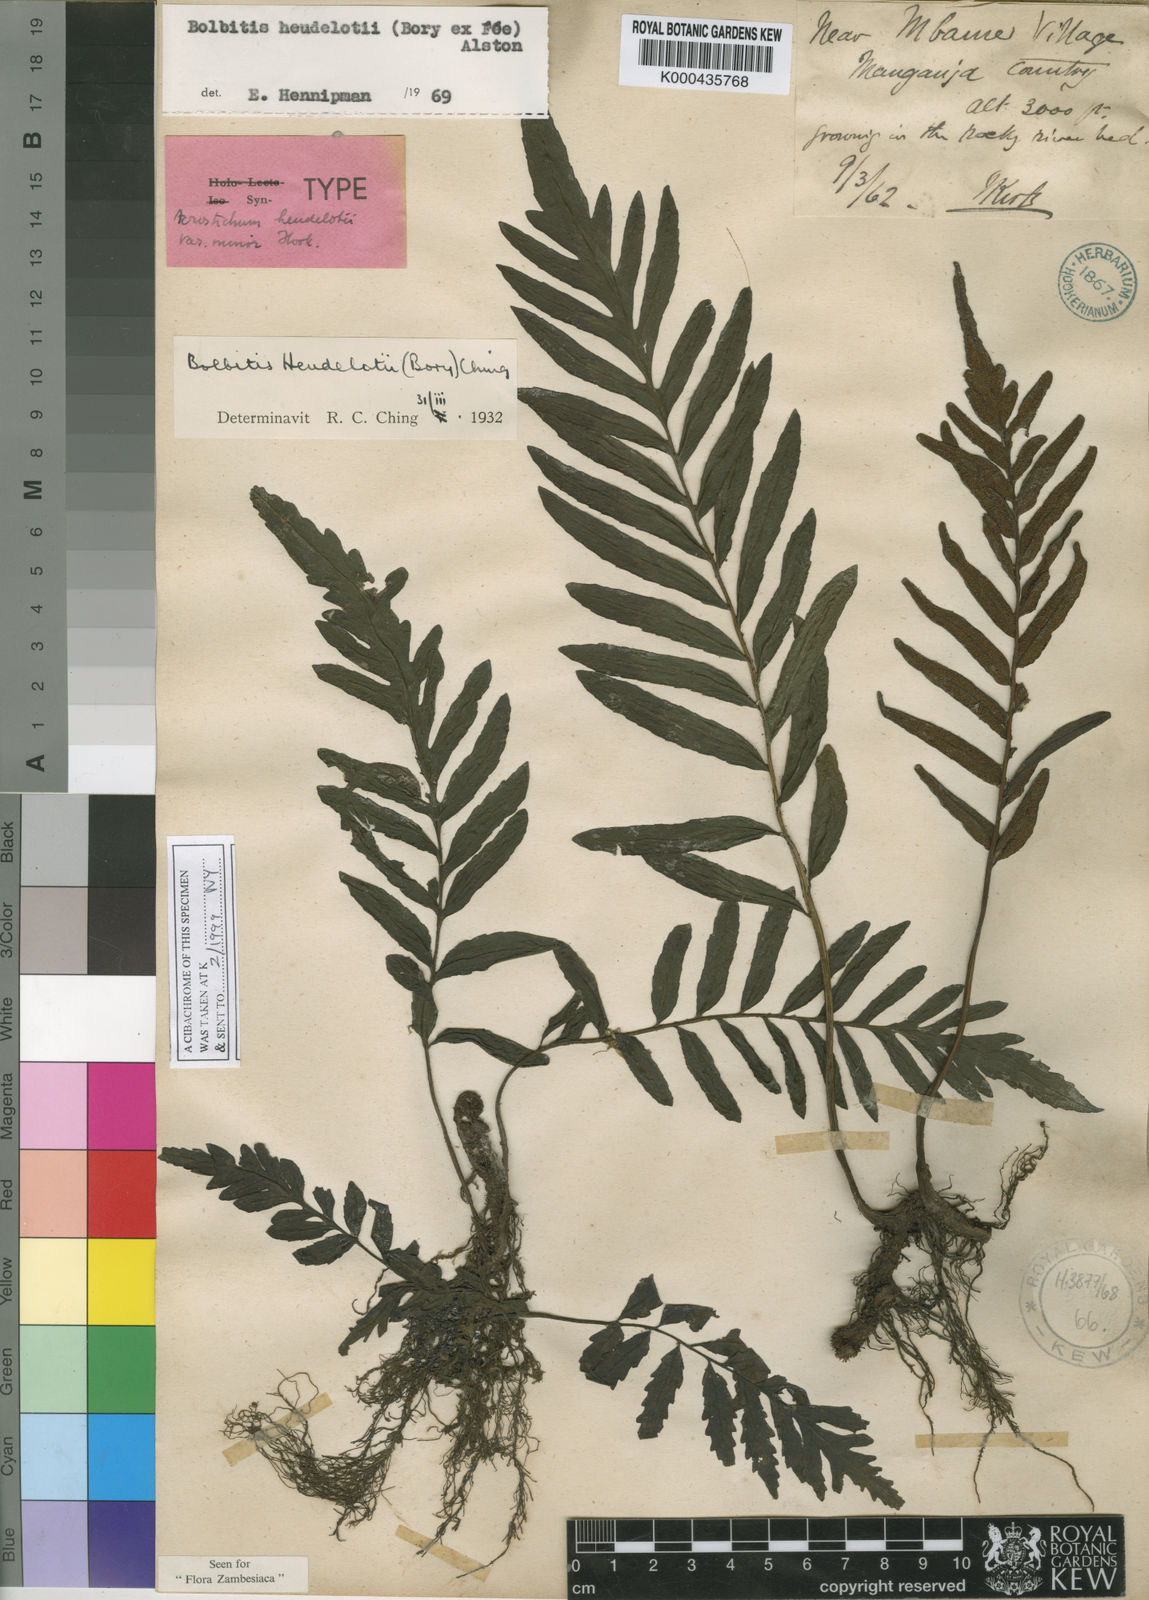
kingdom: Plantae
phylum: Tracheophyta
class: Polypodiopsida
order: Polypodiales
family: Dryopteridaceae
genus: Bolbitis
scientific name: Bolbitis heudelotii
